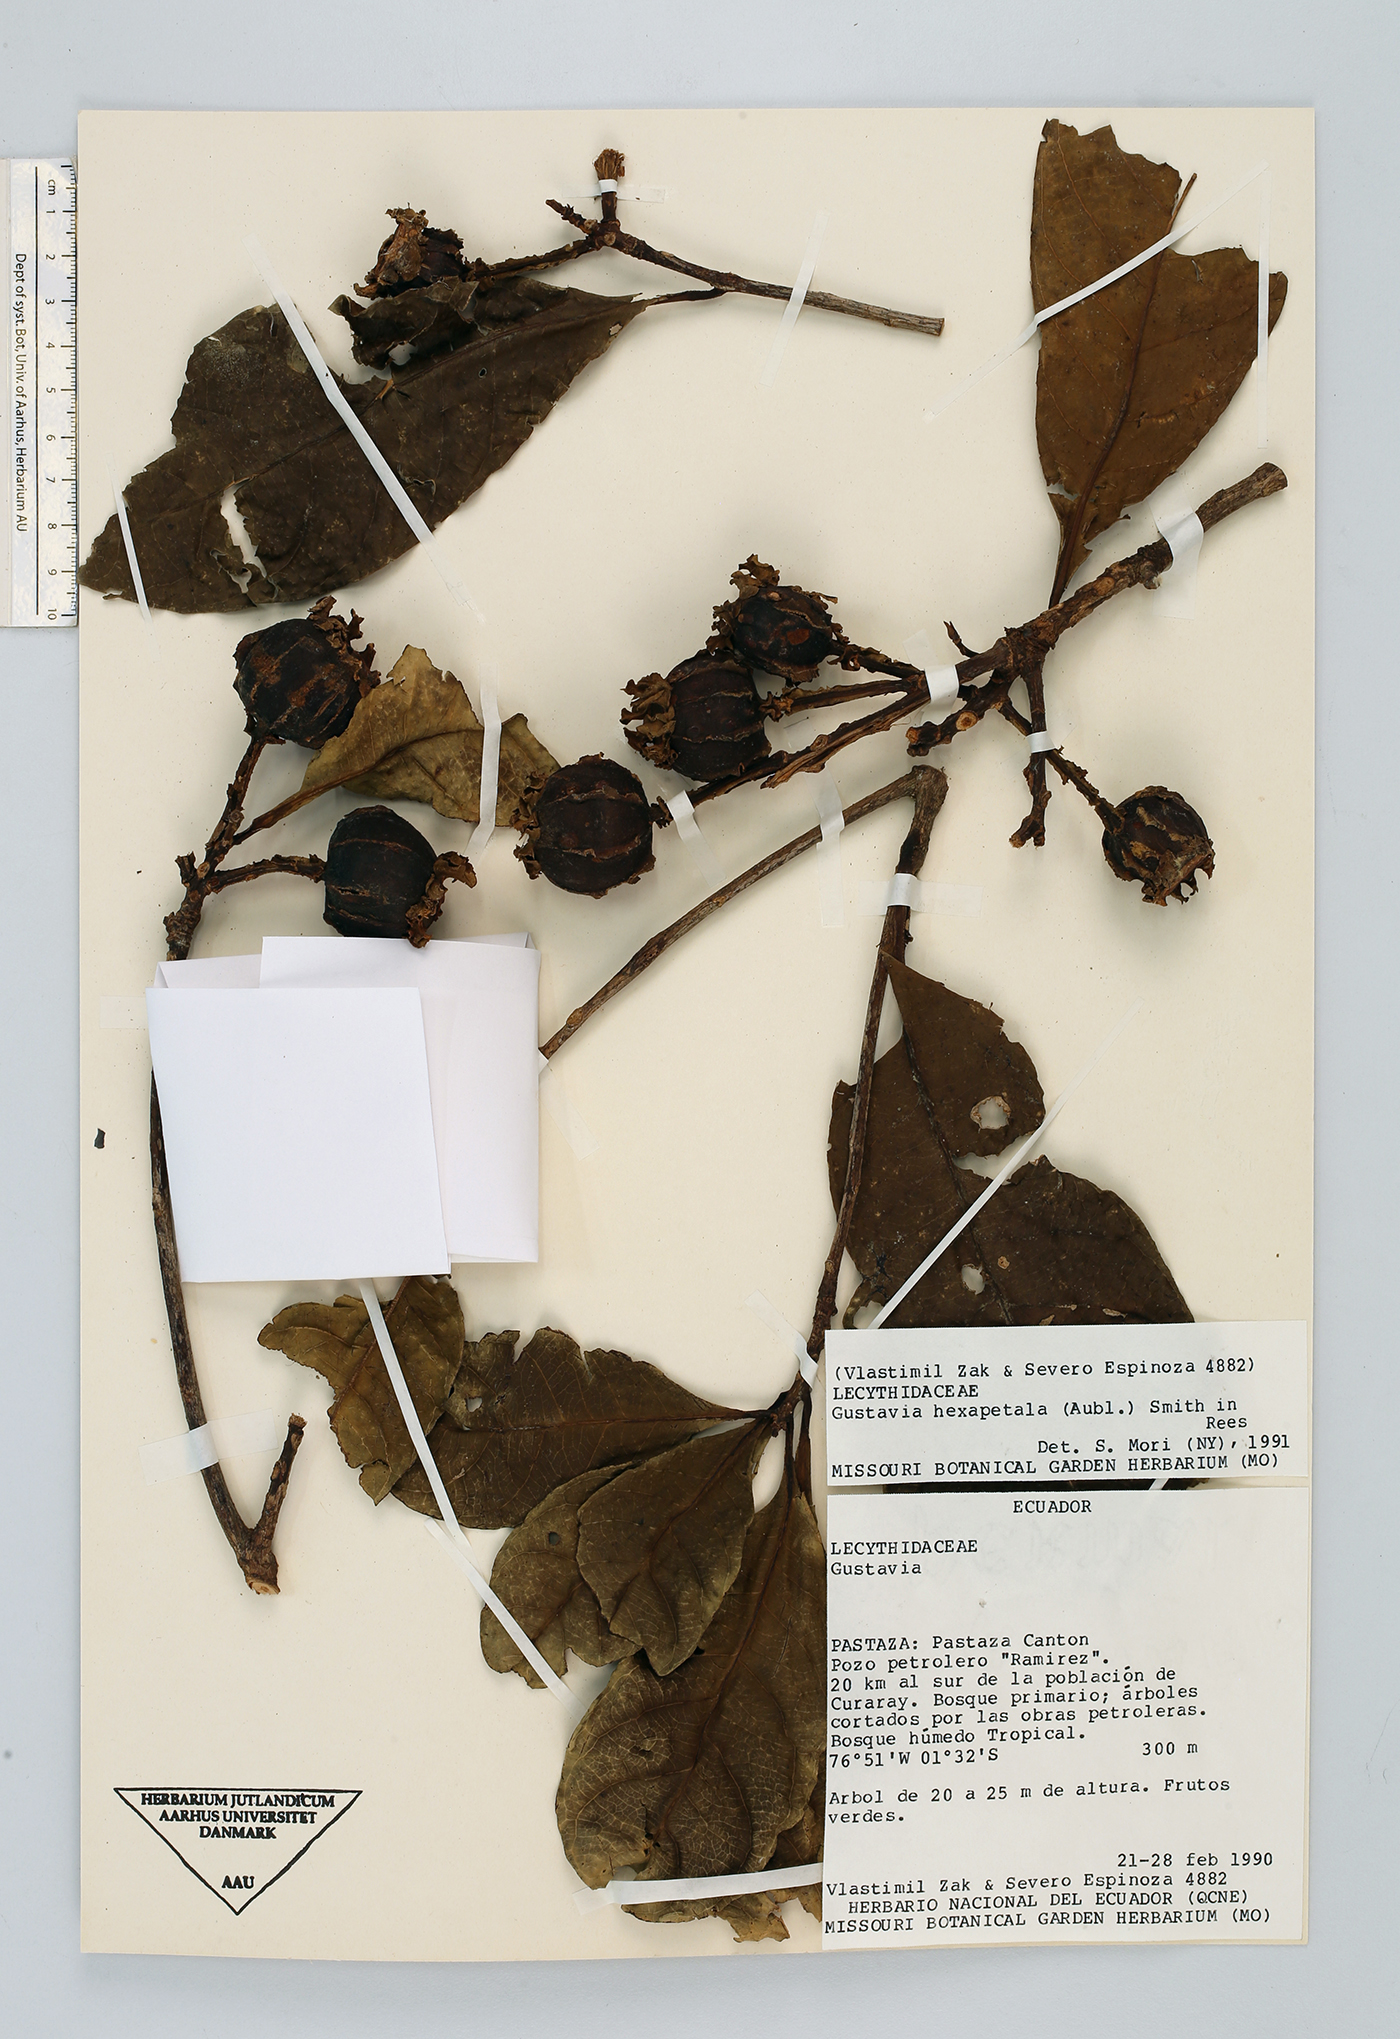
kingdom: Plantae
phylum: Tracheophyta
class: Magnoliopsida
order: Ericales
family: Lecythidaceae
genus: Gustavia
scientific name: Gustavia hexapetala
